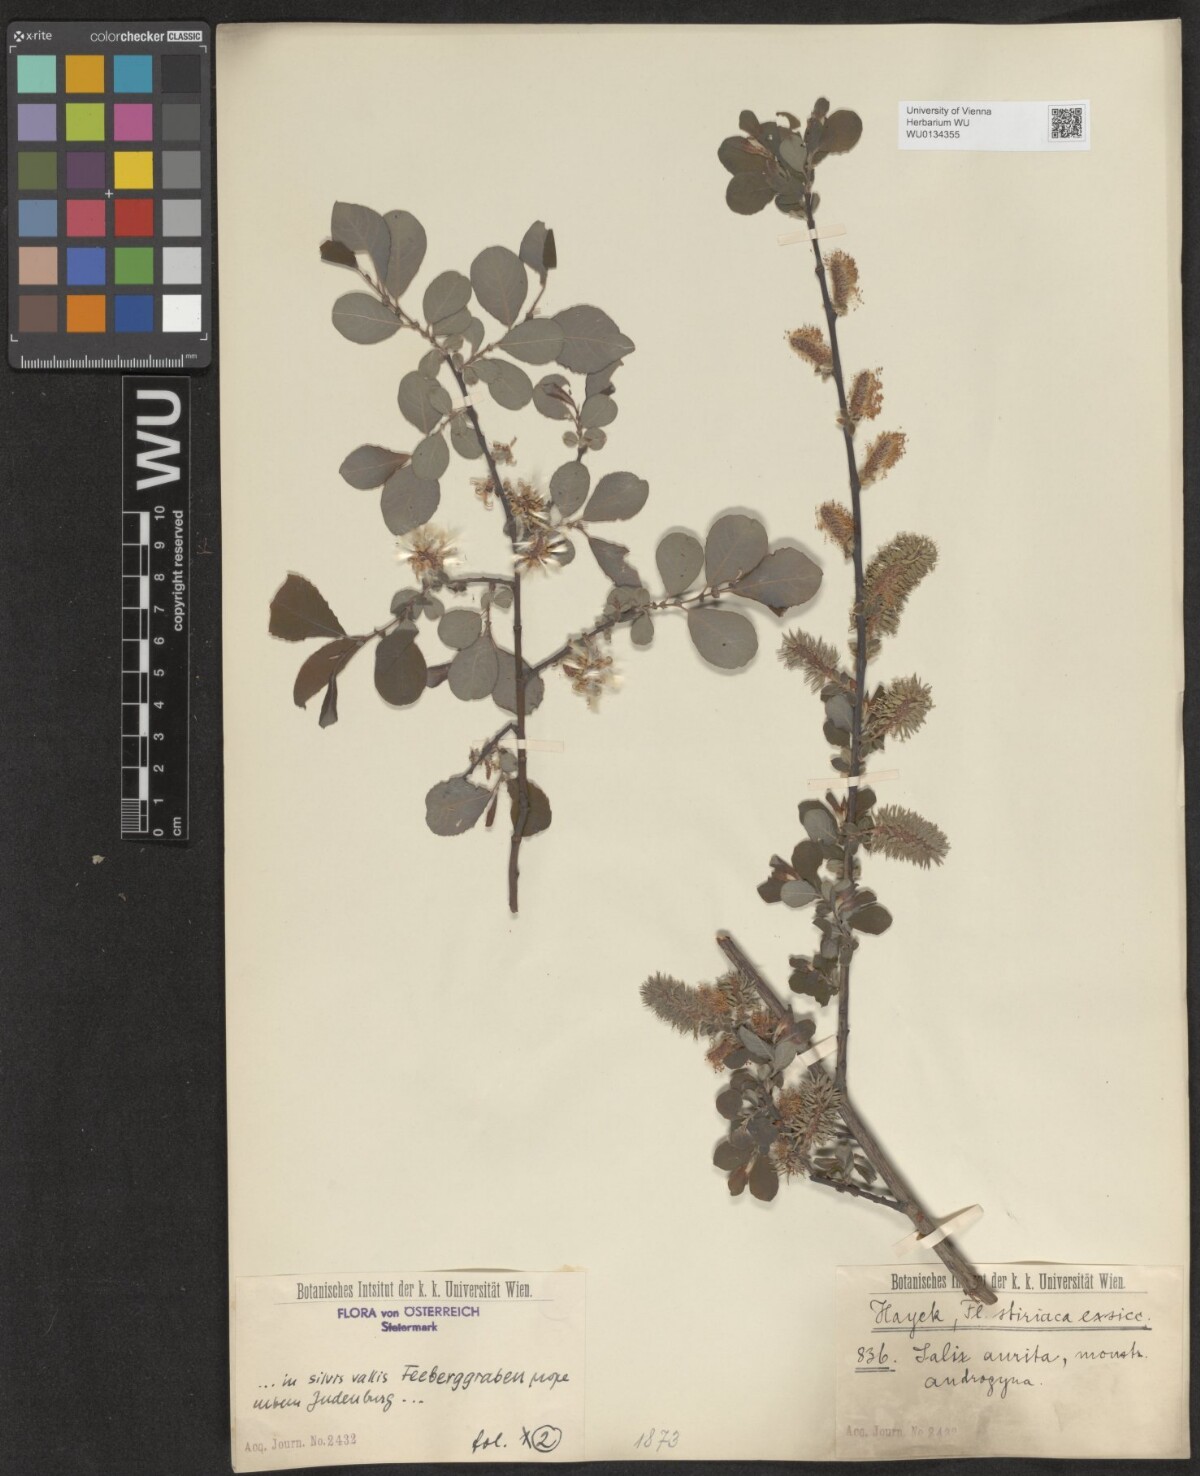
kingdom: Plantae
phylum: Tracheophyta
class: Magnoliopsida
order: Malpighiales
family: Salicaceae
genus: Salix
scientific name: Salix aurita
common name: Eared willow
